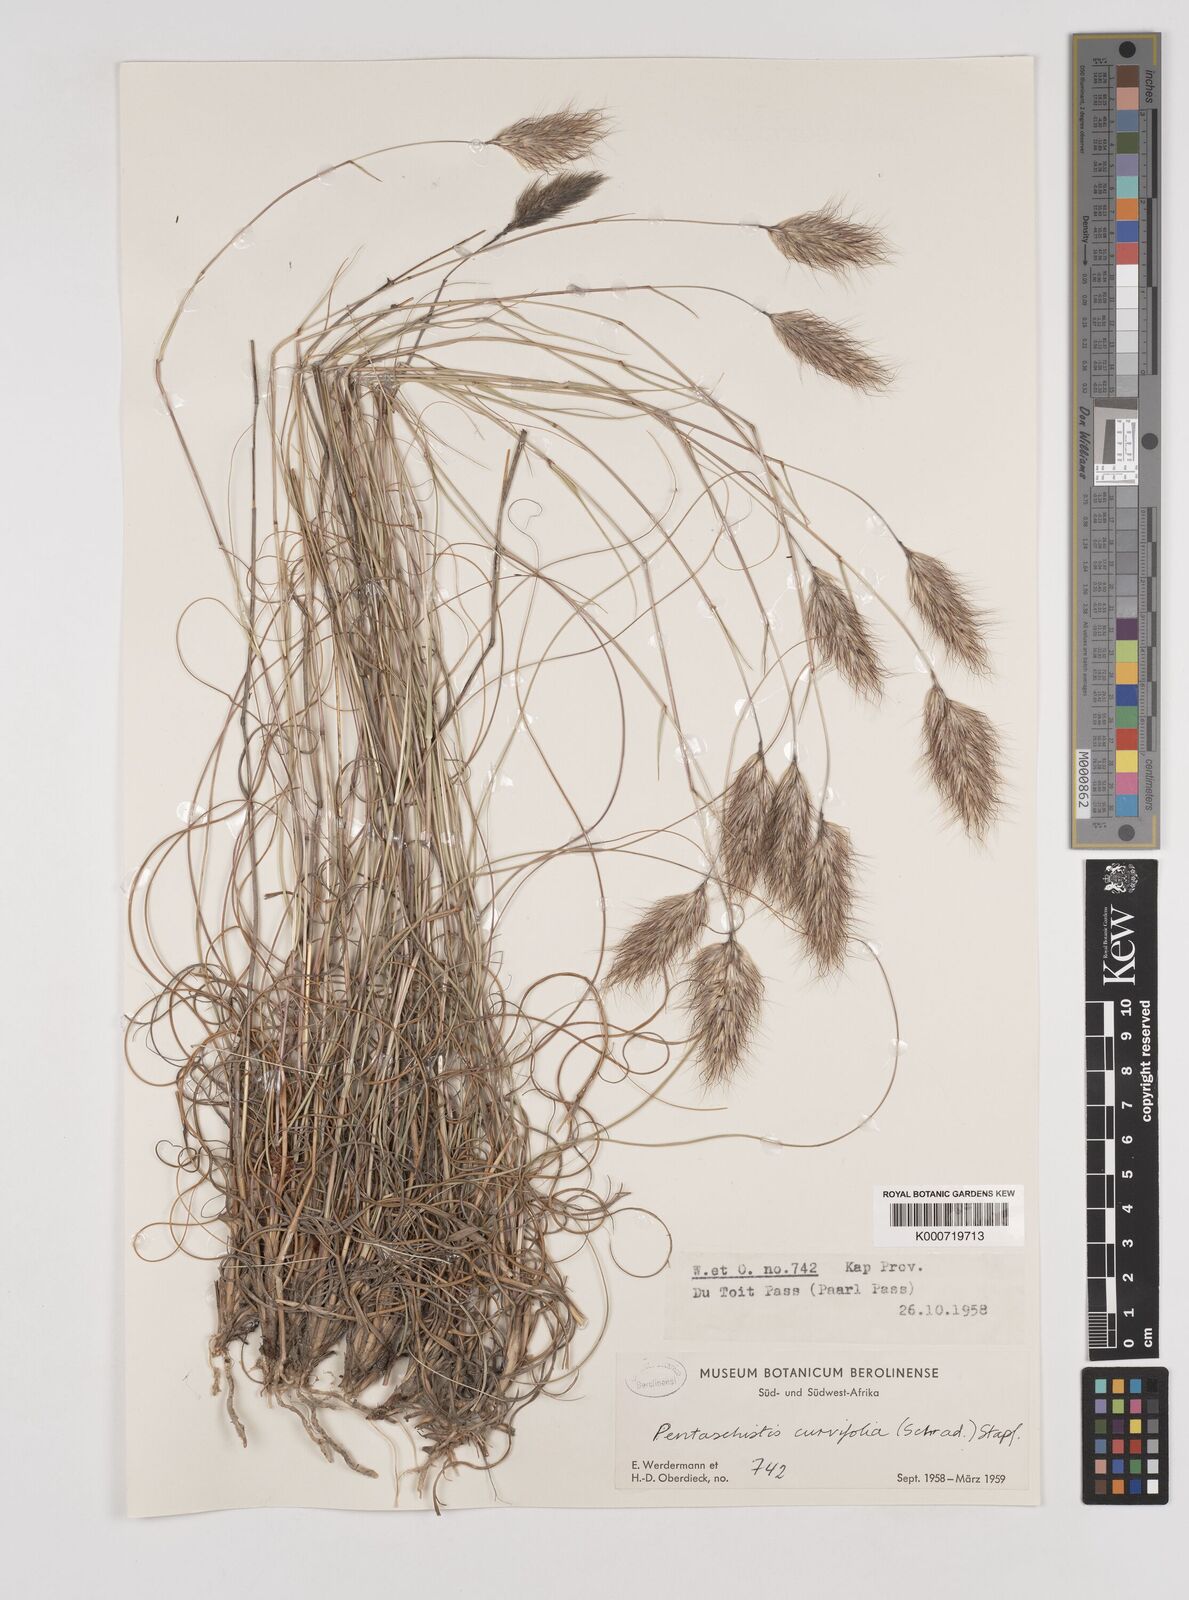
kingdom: Plantae
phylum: Tracheophyta
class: Liliopsida
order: Poales
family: Poaceae
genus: Pentameris
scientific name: Pentameris curvifolia
